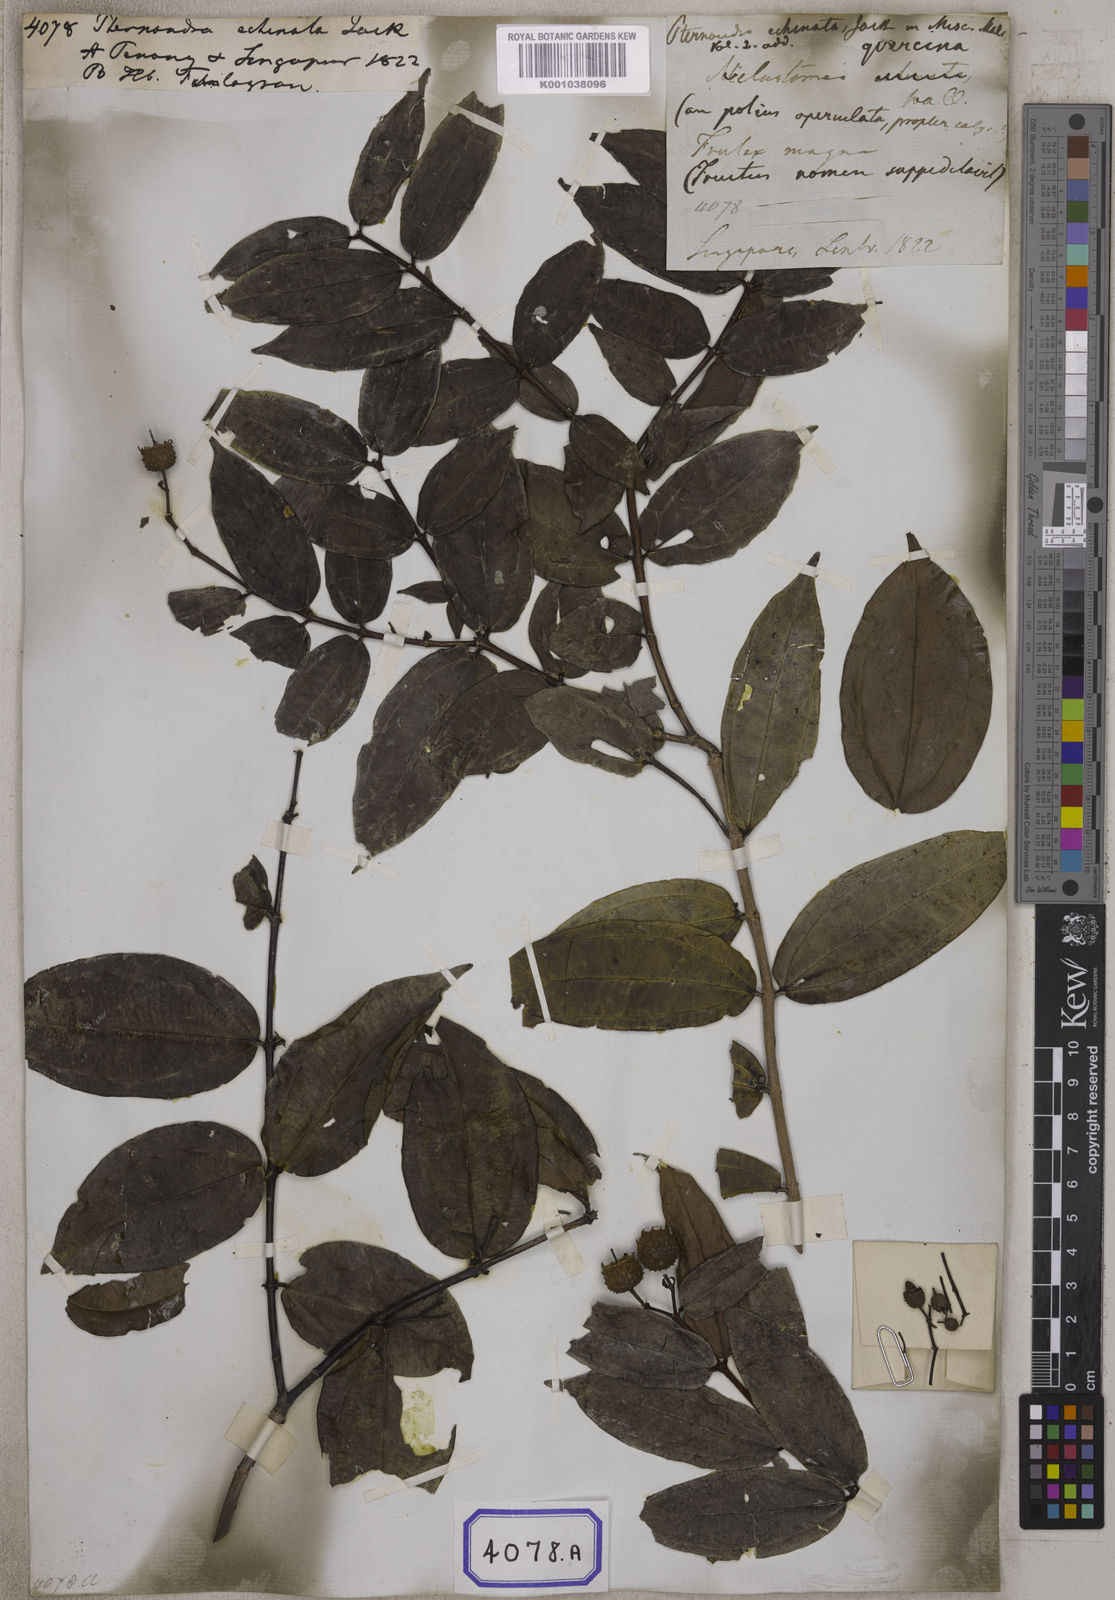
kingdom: Plantae
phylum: Tracheophyta
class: Magnoliopsida
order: Myrtales
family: Melastomataceae
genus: Pternandra
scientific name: Pternandra echinata
